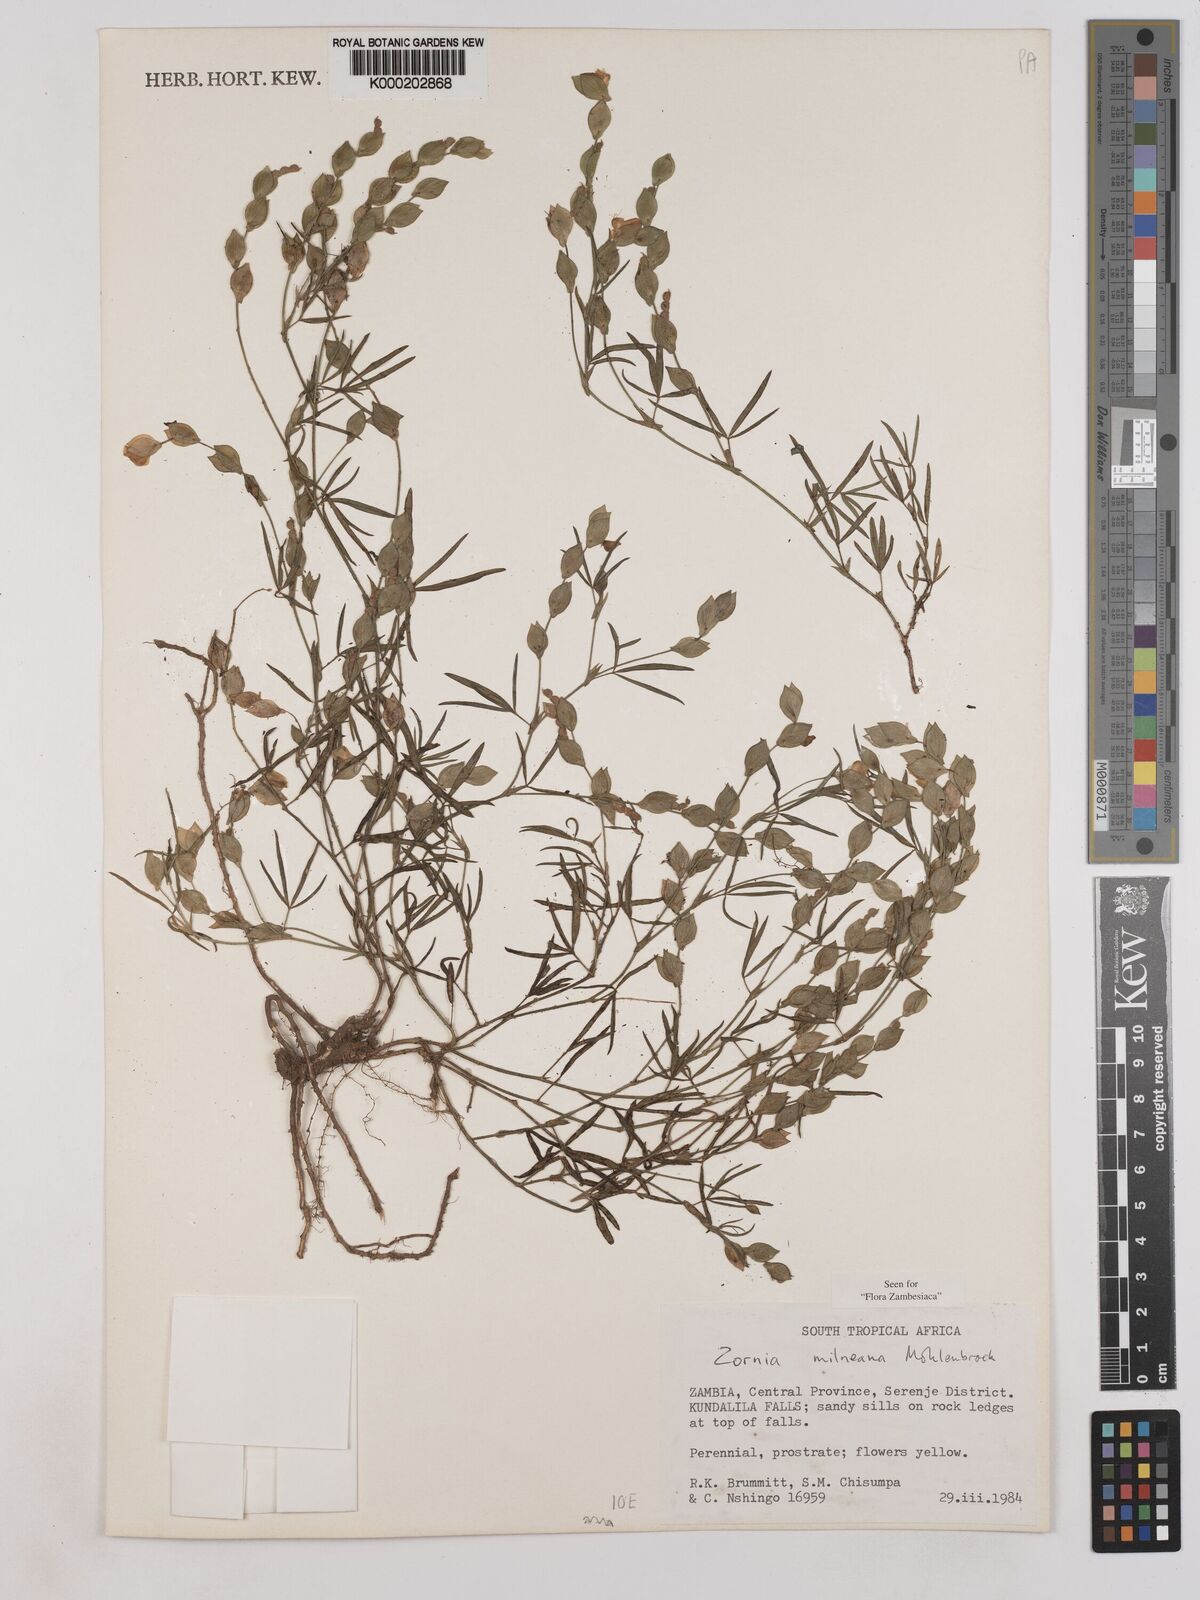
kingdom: Plantae
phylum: Tracheophyta
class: Magnoliopsida
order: Fabales
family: Fabaceae
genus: Zornia
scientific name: Zornia milneana
